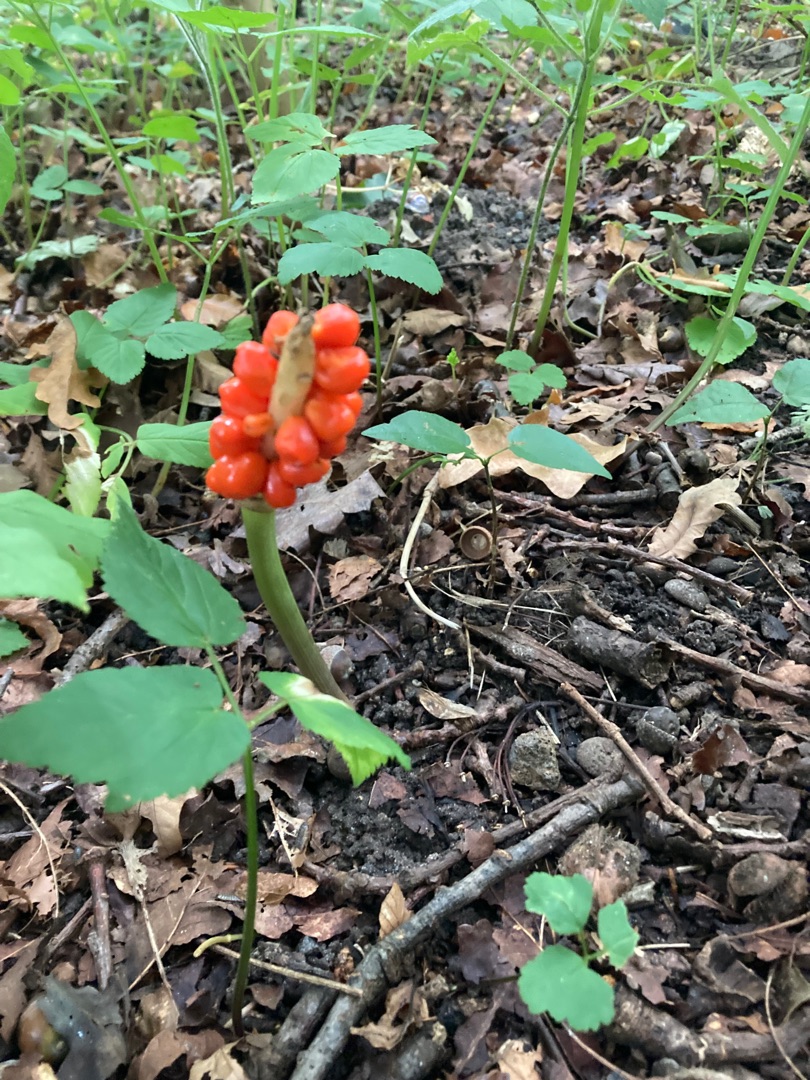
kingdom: Plantae
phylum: Tracheophyta
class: Liliopsida
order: Alismatales
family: Araceae
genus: Arum
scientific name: Arum
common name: Arumslægten
